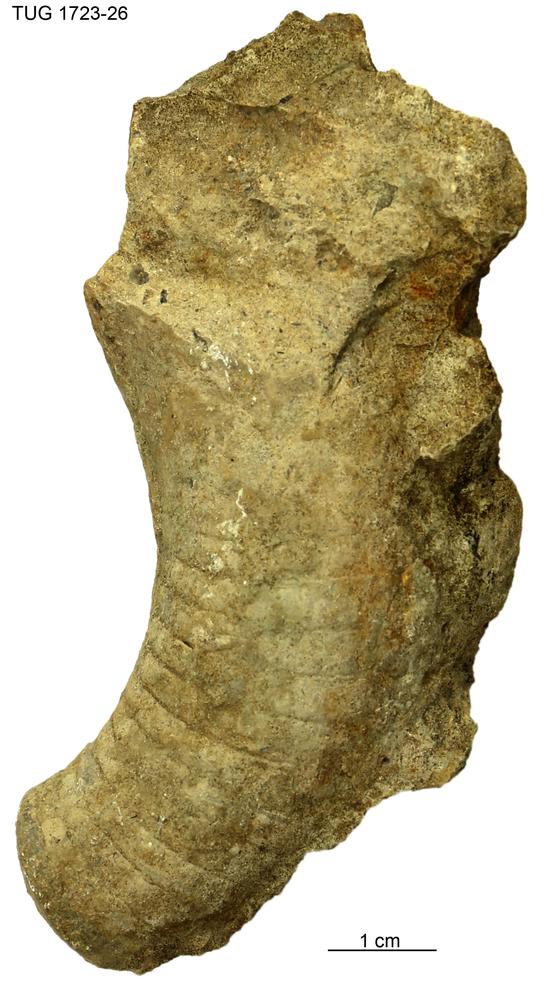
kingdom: Animalia
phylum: Mollusca
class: Cephalopoda
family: Trocholitidae
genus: Schroederoceras
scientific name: Schroederoceras
